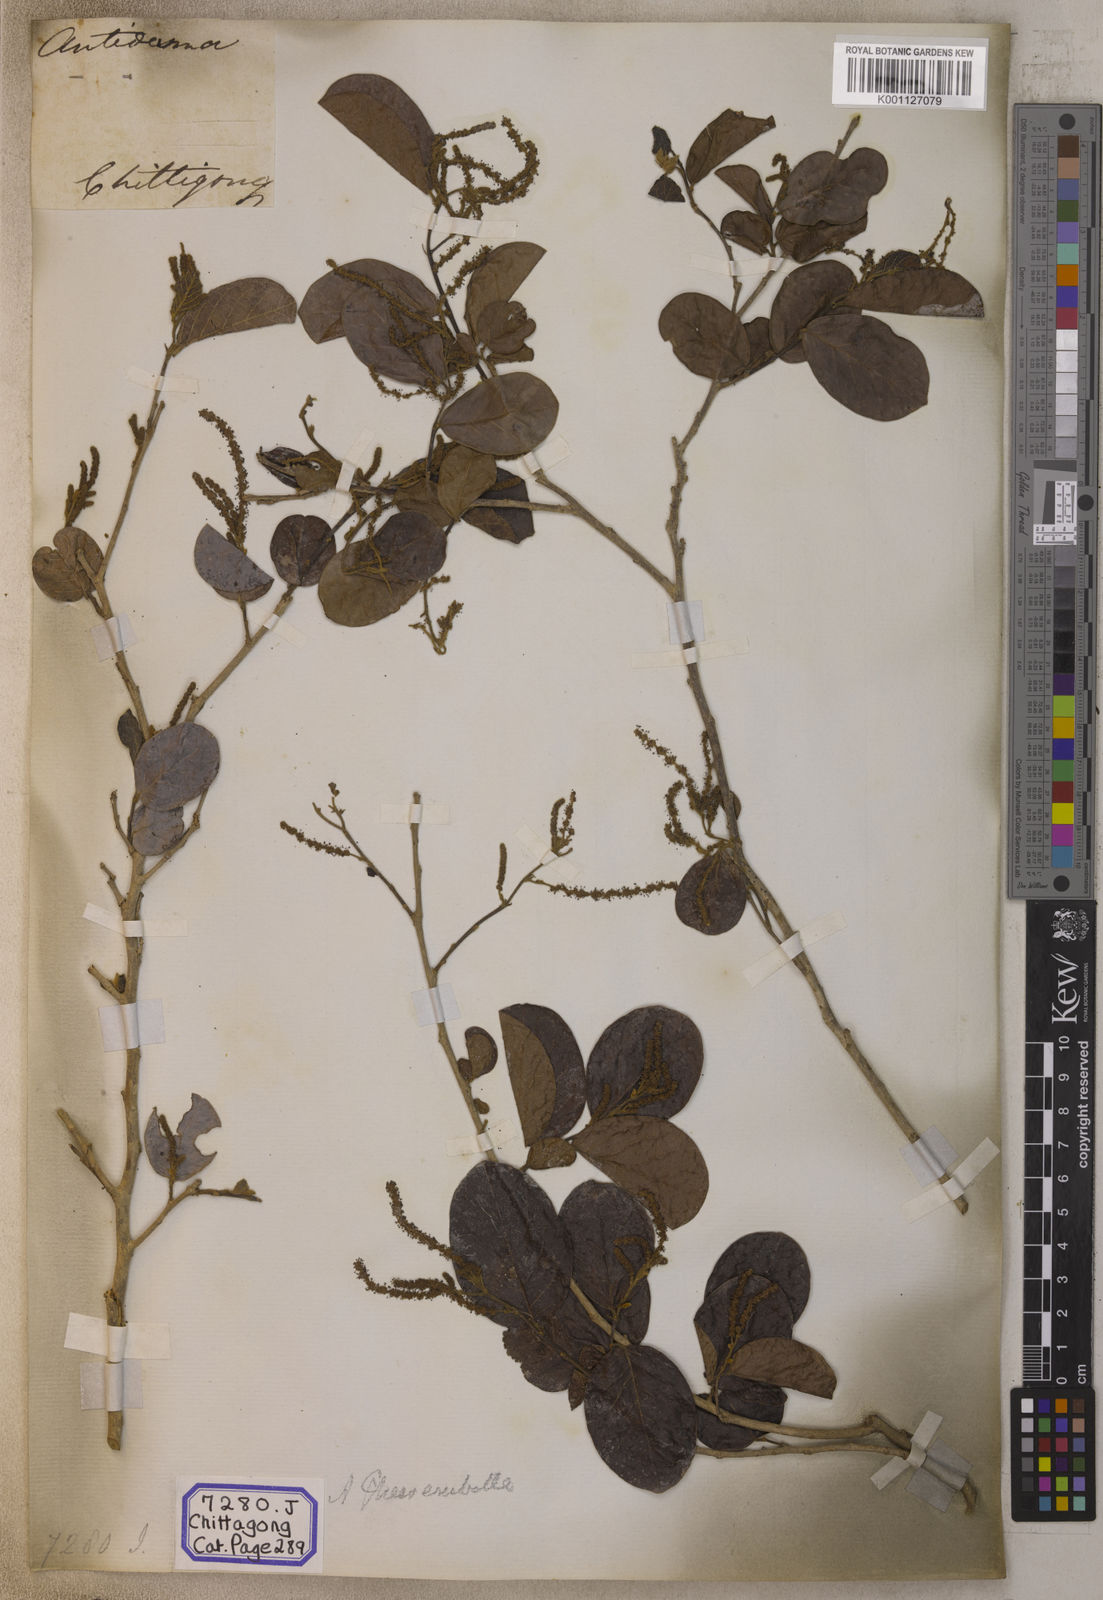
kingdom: Plantae
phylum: Tracheophyta
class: Magnoliopsida
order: Malpighiales
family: Phyllanthaceae
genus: Antidesma
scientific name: Antidesma
